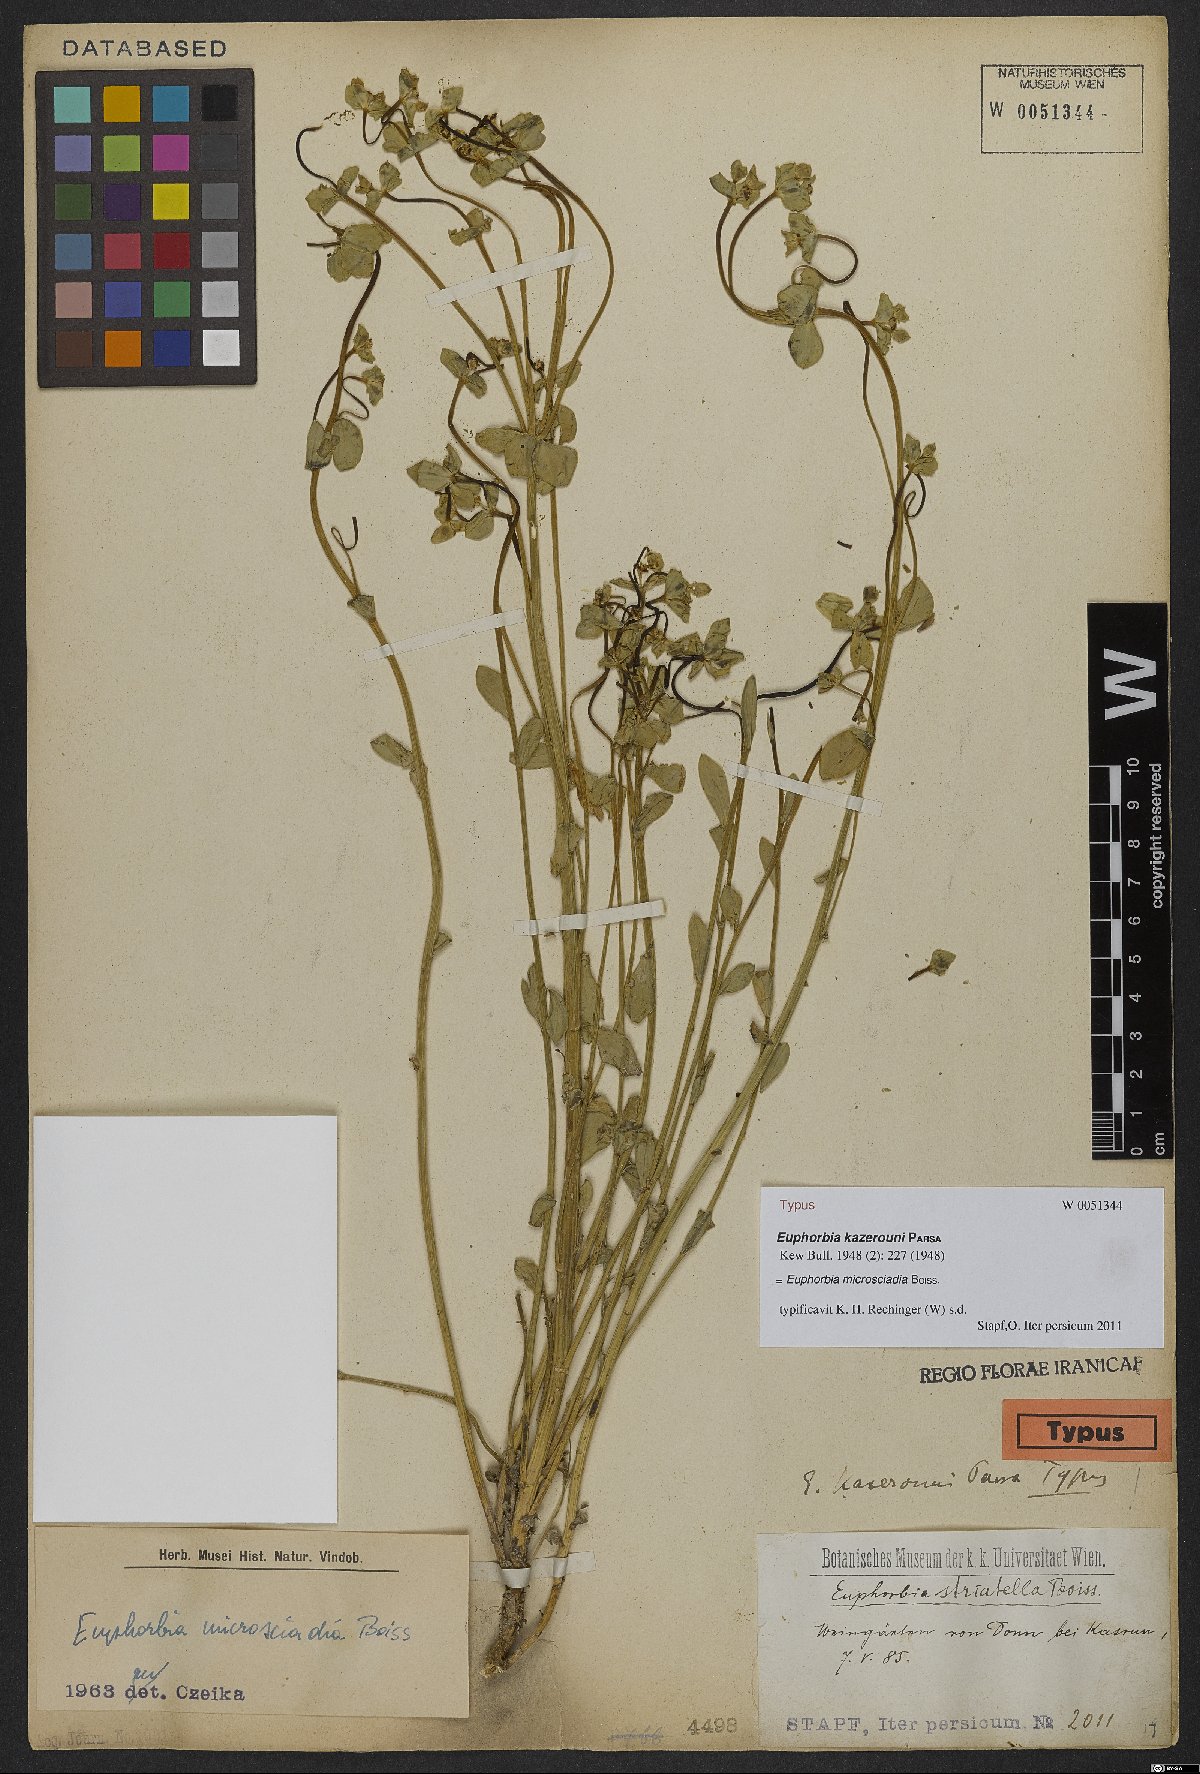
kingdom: Plantae
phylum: Tracheophyta
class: Liliopsida
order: Asparagales
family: Orchidaceae
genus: Habenaria
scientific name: Habenaria floribunda
